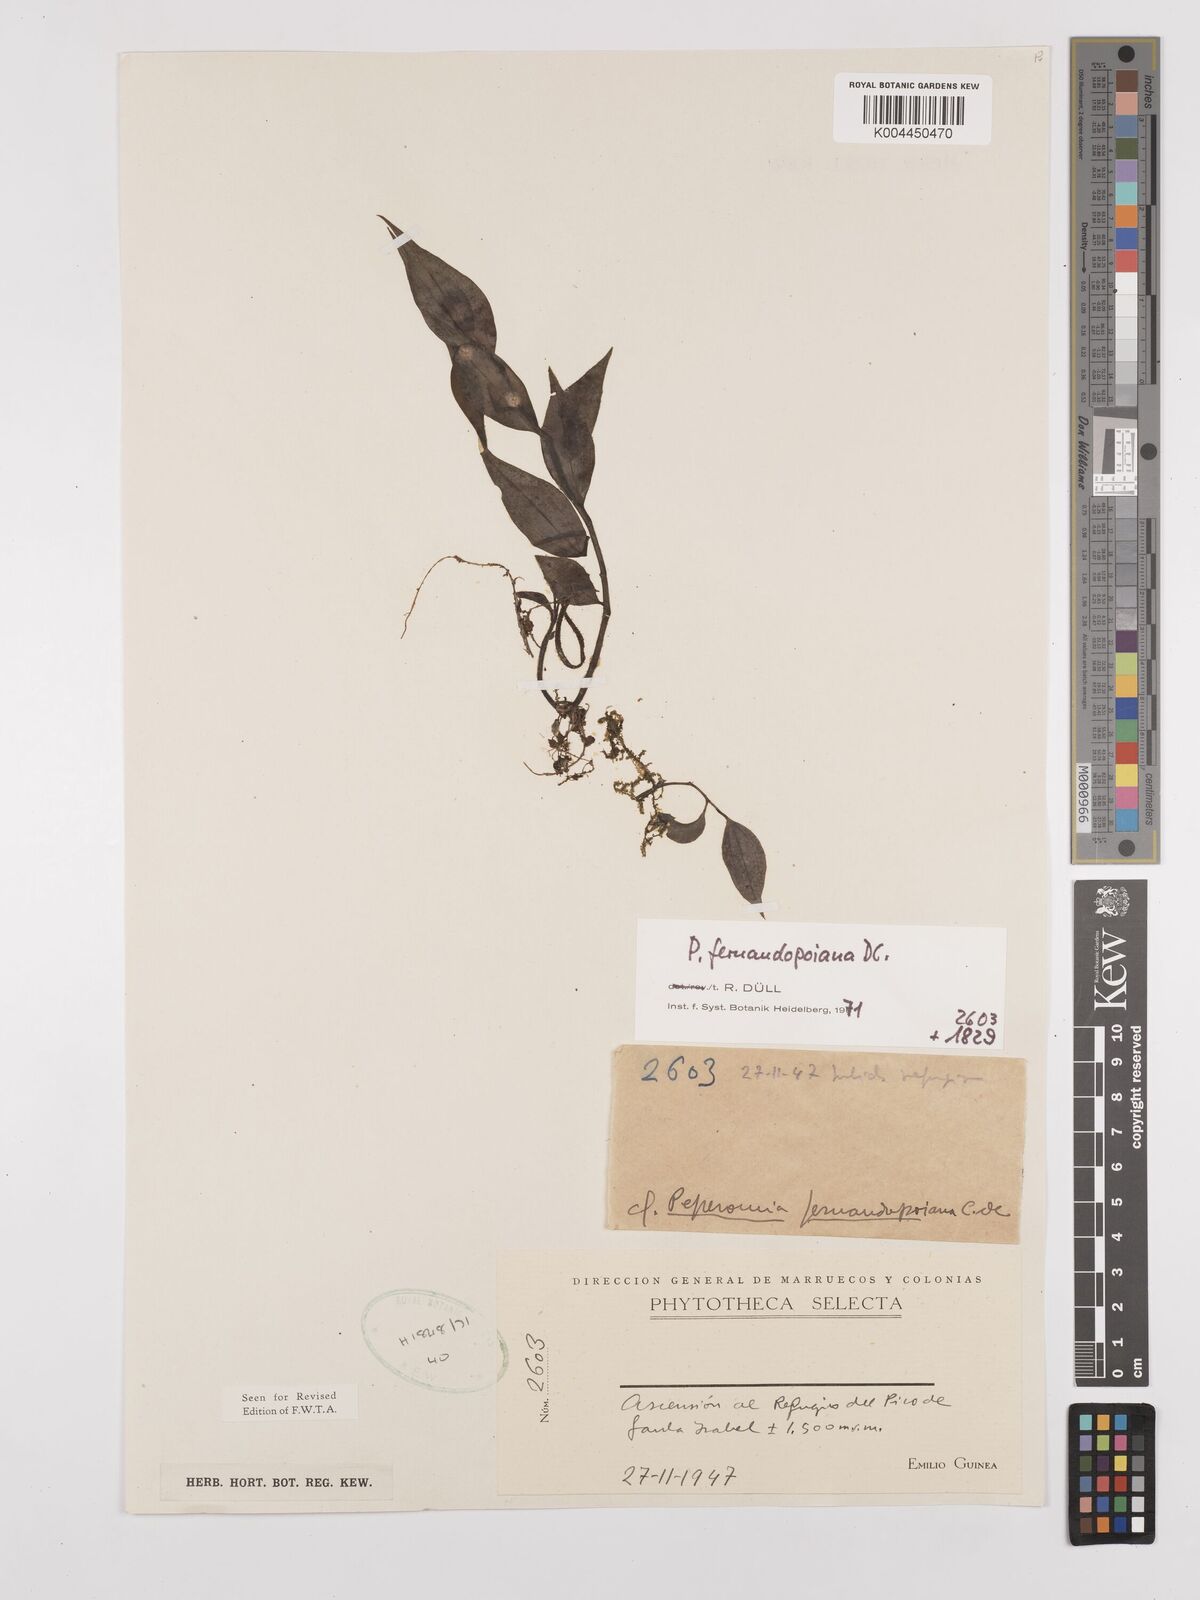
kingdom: Plantae
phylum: Tracheophyta
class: Magnoliopsida
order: Piperales
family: Piperaceae
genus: Peperomia
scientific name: Peperomia fernandopoiana
